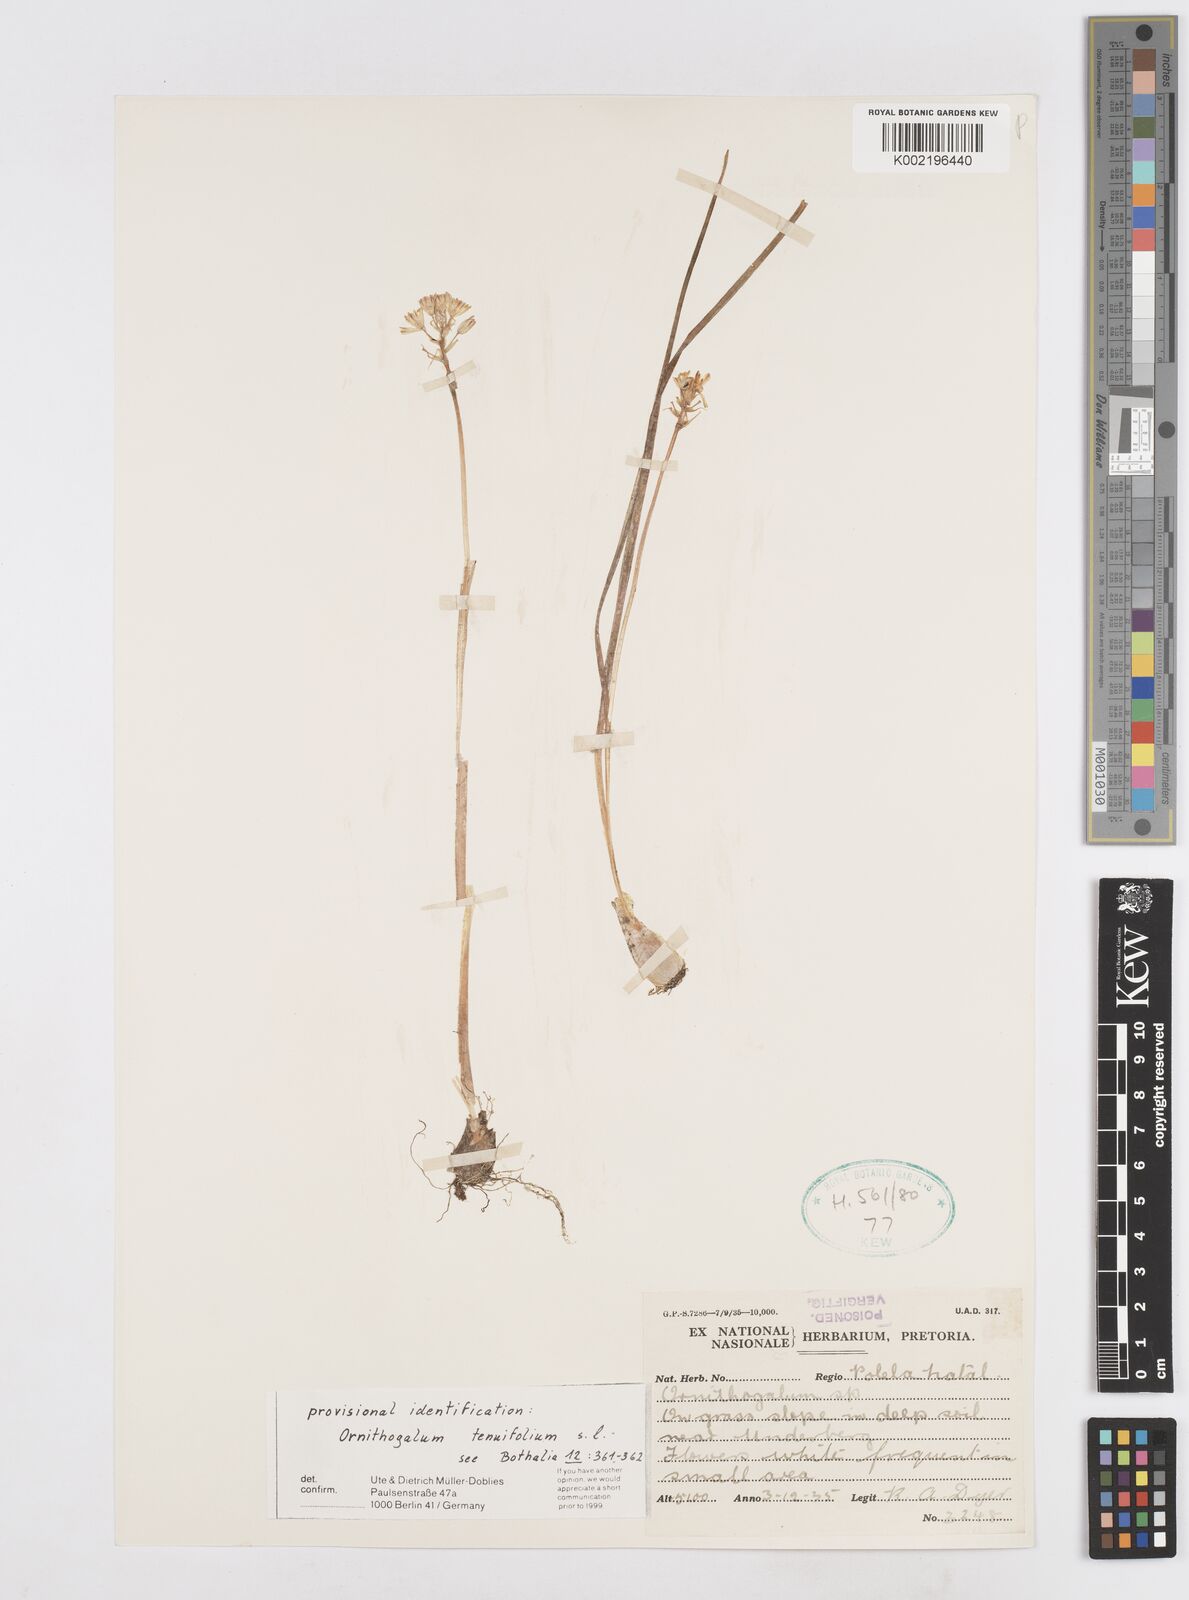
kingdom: Plantae
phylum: Tracheophyta
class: Liliopsida
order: Asparagales
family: Asparagaceae
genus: Albuca
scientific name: Albuca virens
